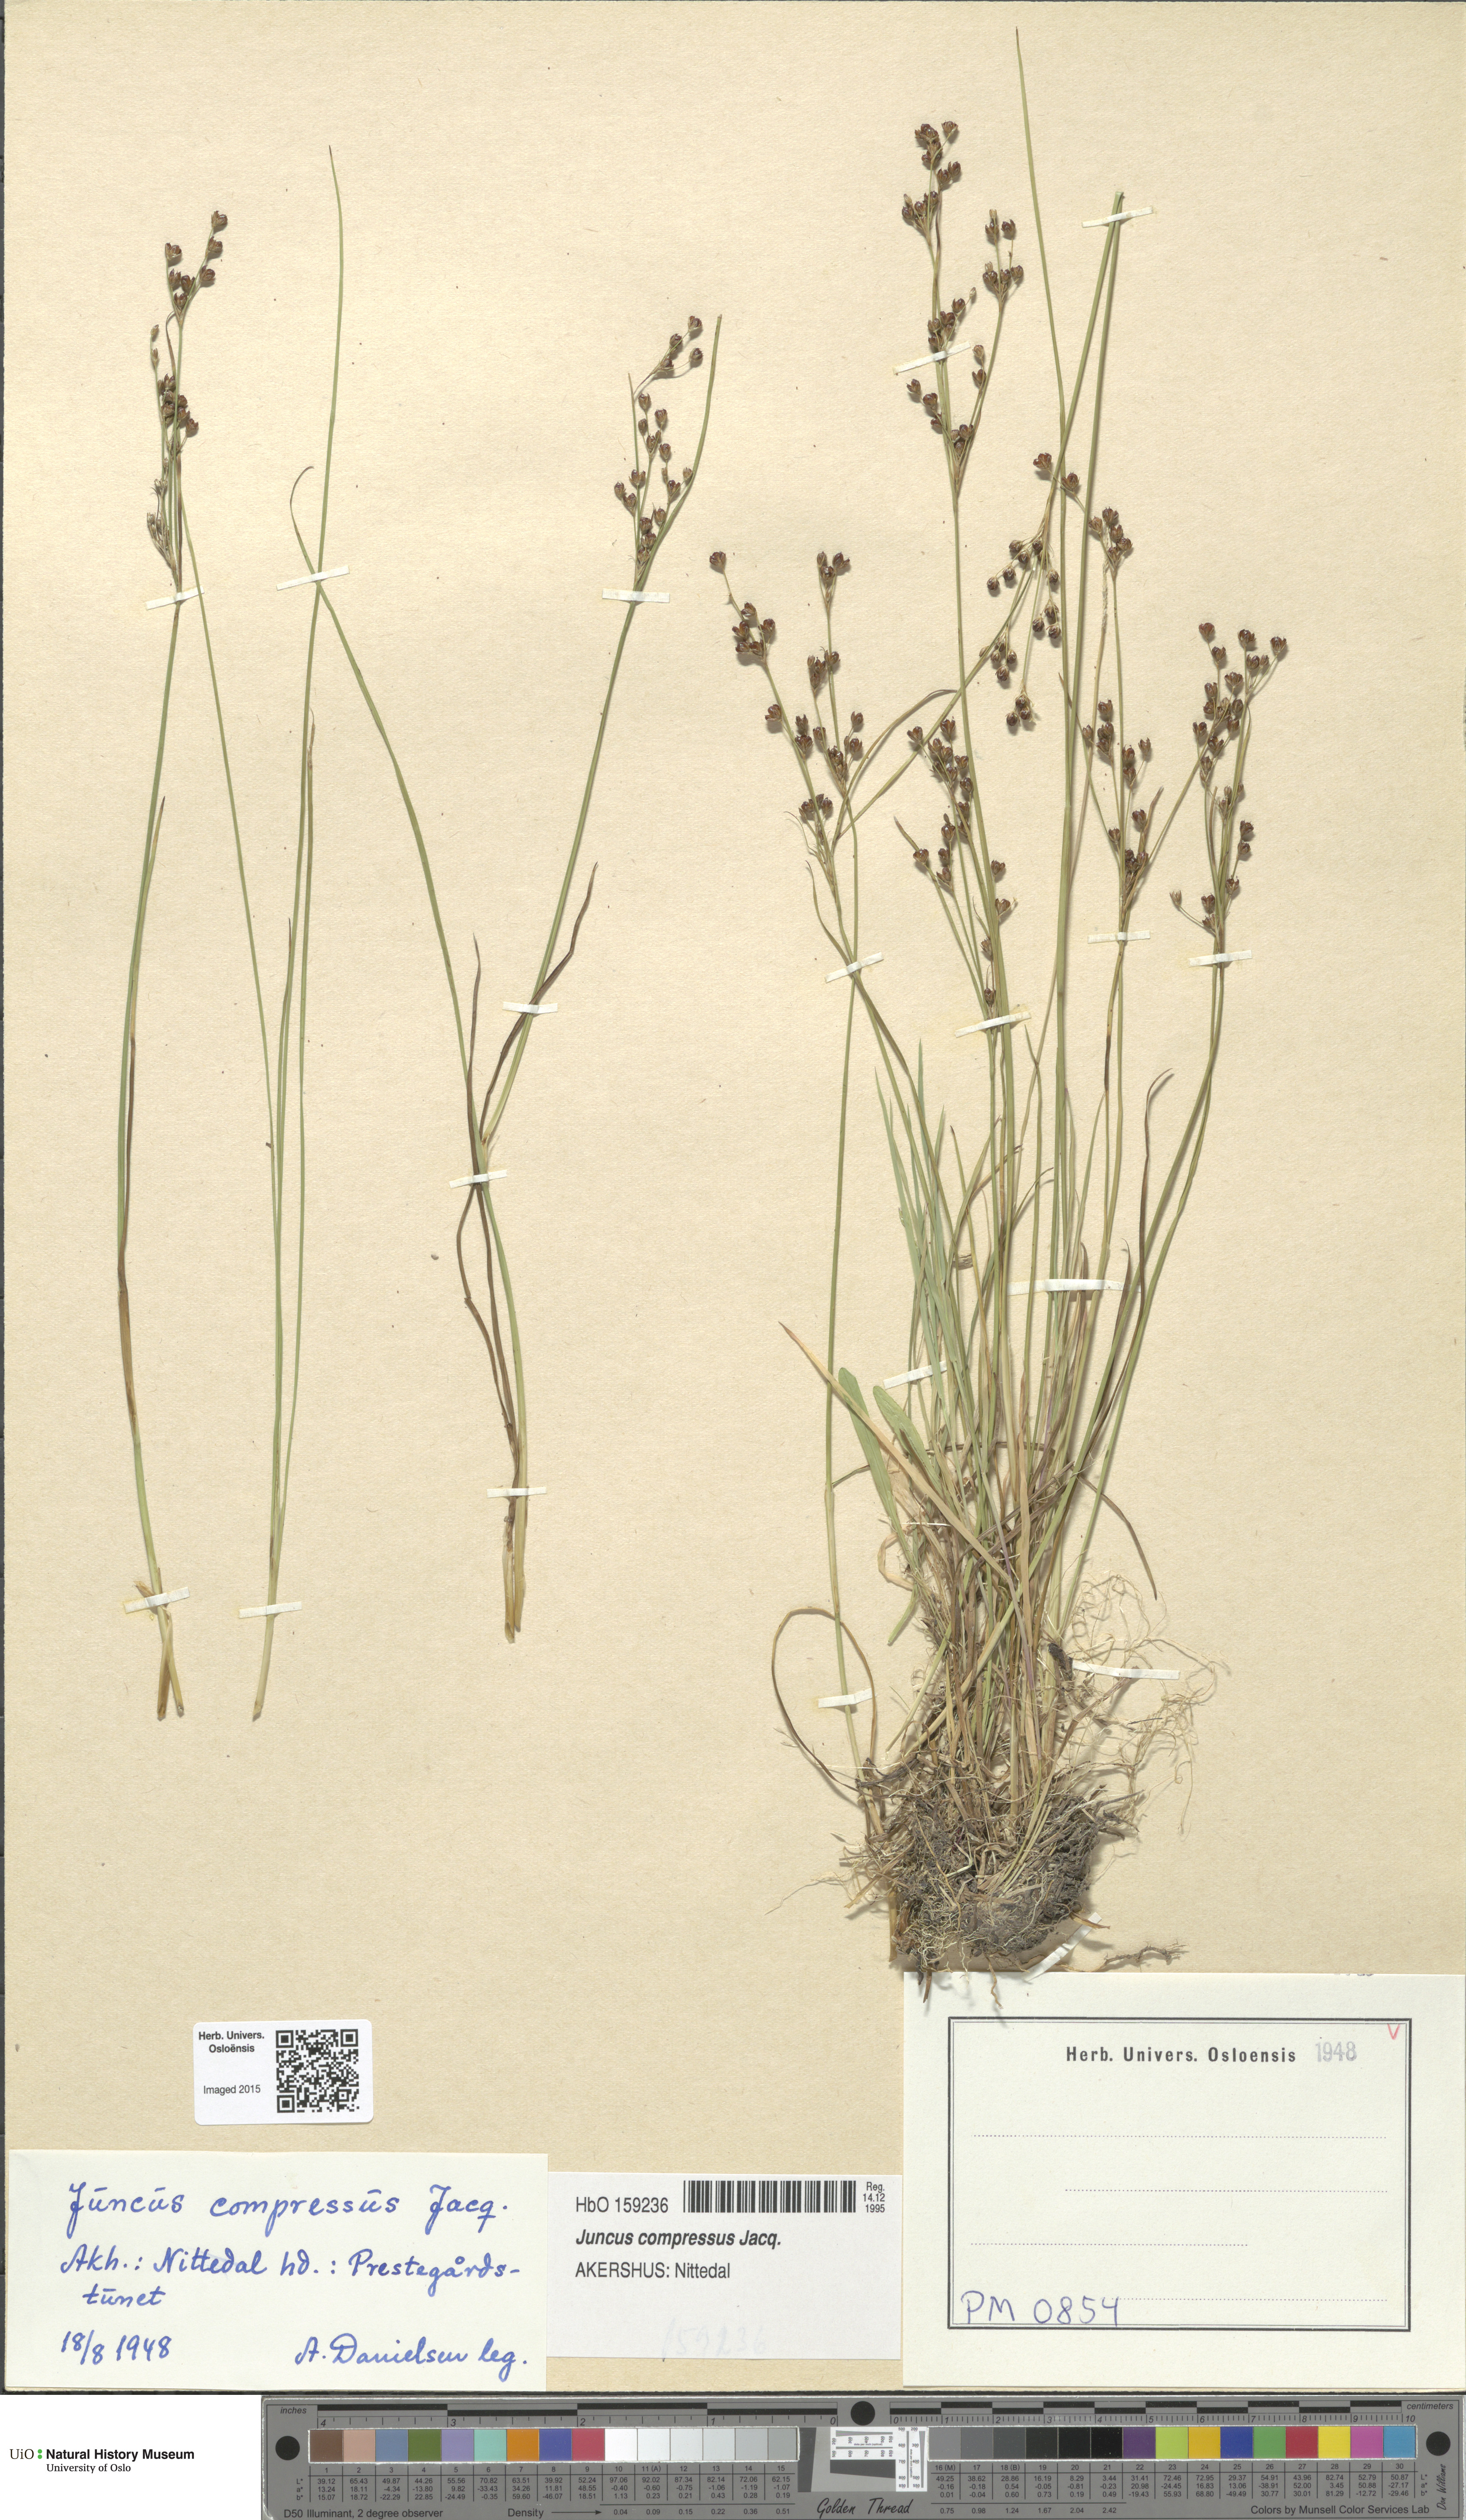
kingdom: Plantae
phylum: Tracheophyta
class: Liliopsida
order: Poales
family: Juncaceae
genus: Juncus
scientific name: Juncus compressus
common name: Round-fruited rush
